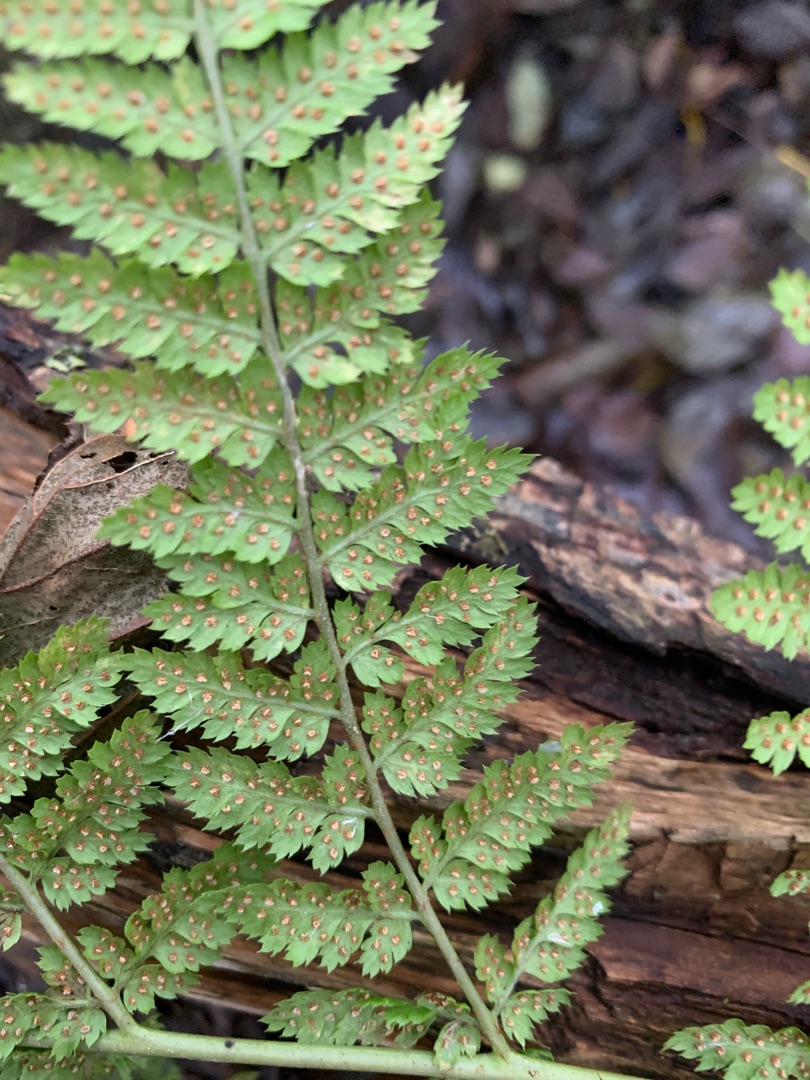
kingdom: Plantae
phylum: Tracheophyta
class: Polypodiopsida
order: Polypodiales
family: Dryopteridaceae
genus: Dryopteris
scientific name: Dryopteris dilatata
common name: Bredbladet mangeløv
